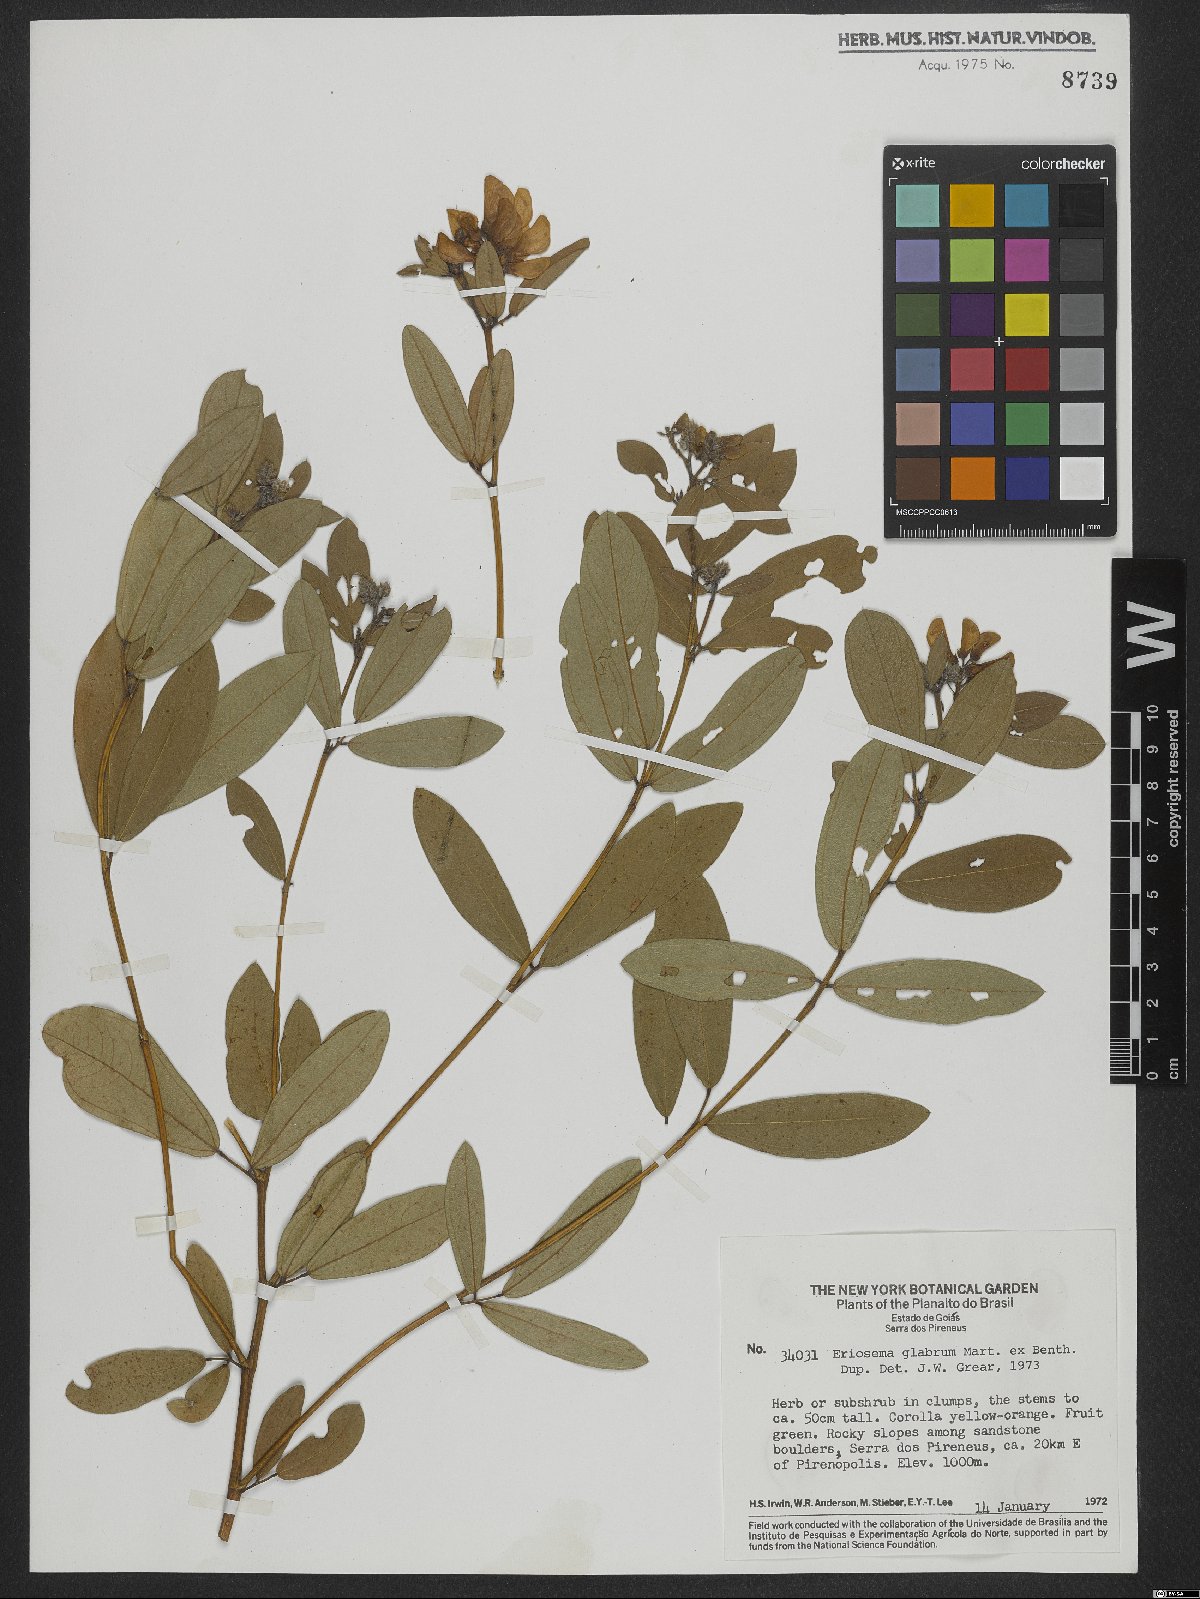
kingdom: Plantae
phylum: Tracheophyta
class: Magnoliopsida
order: Fabales
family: Fabaceae
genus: Eriosema
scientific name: Eriosema glabrum
